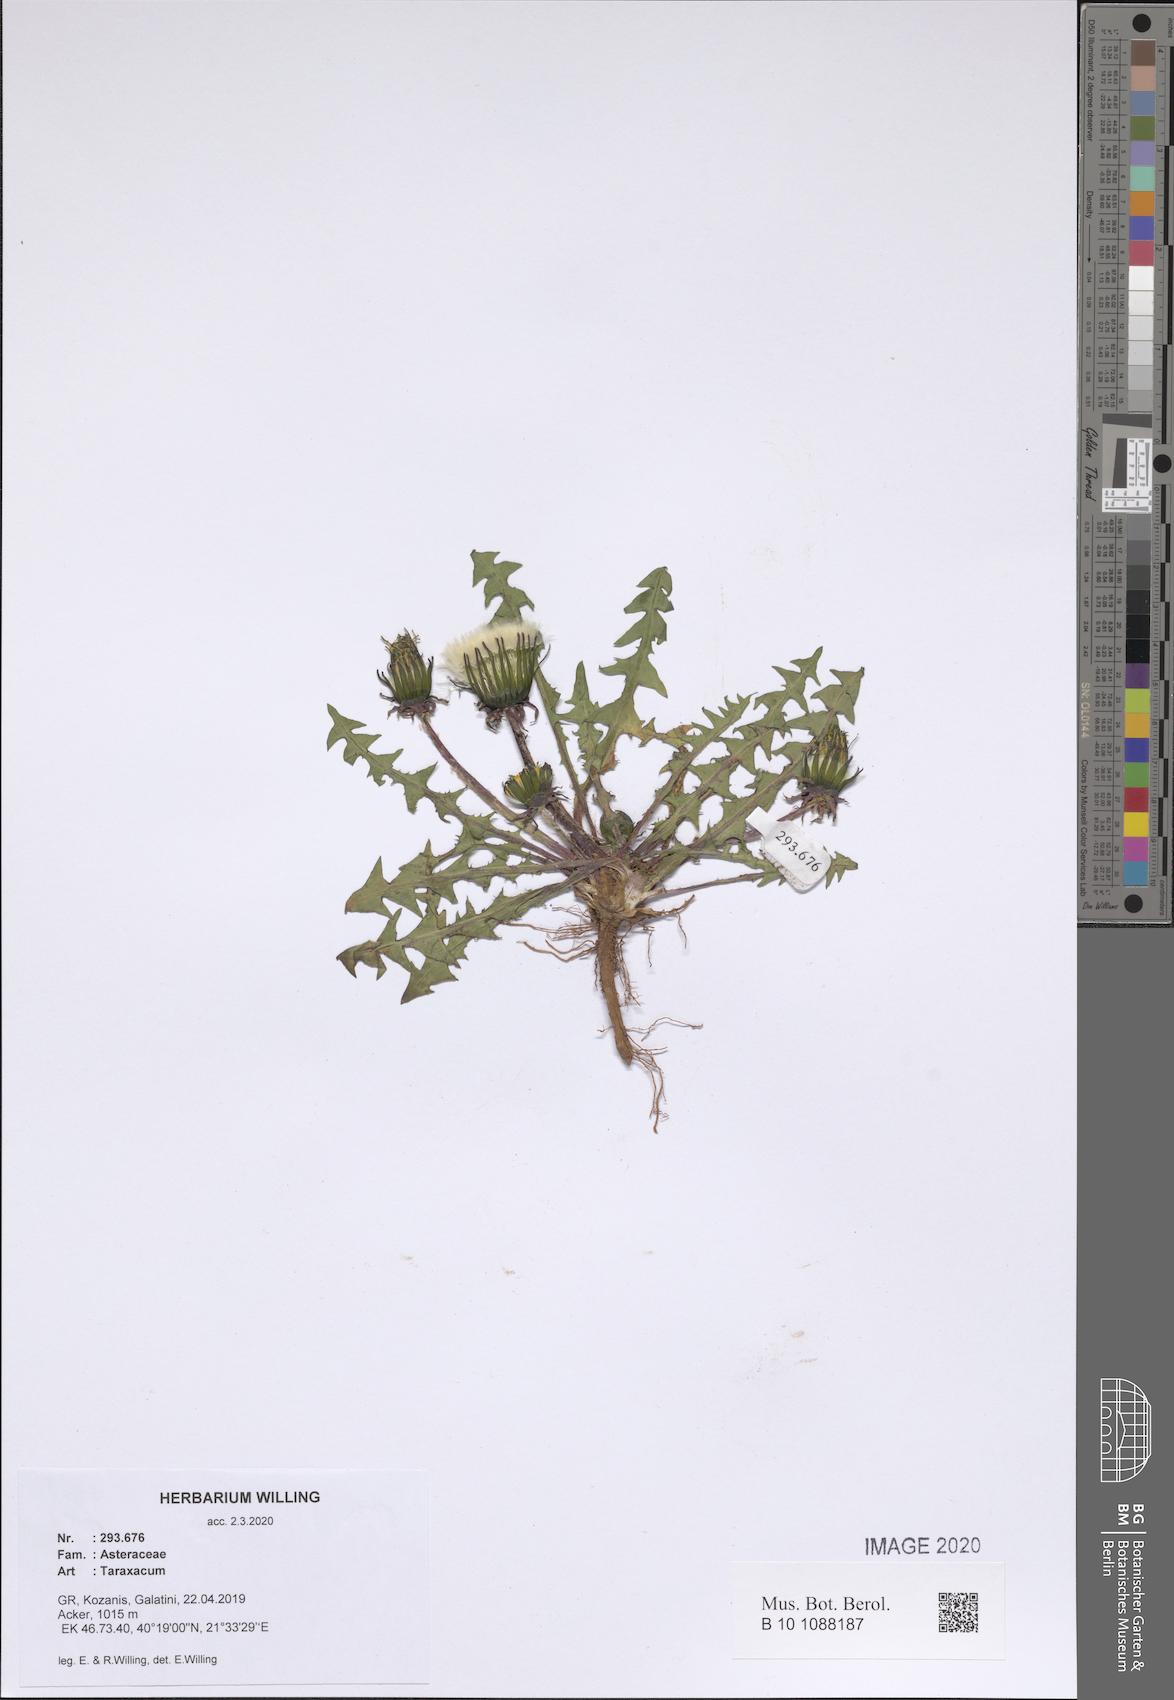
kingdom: Plantae
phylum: Tracheophyta
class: Magnoliopsida
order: Asterales
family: Asteraceae
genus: Taraxacum
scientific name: Taraxacum
